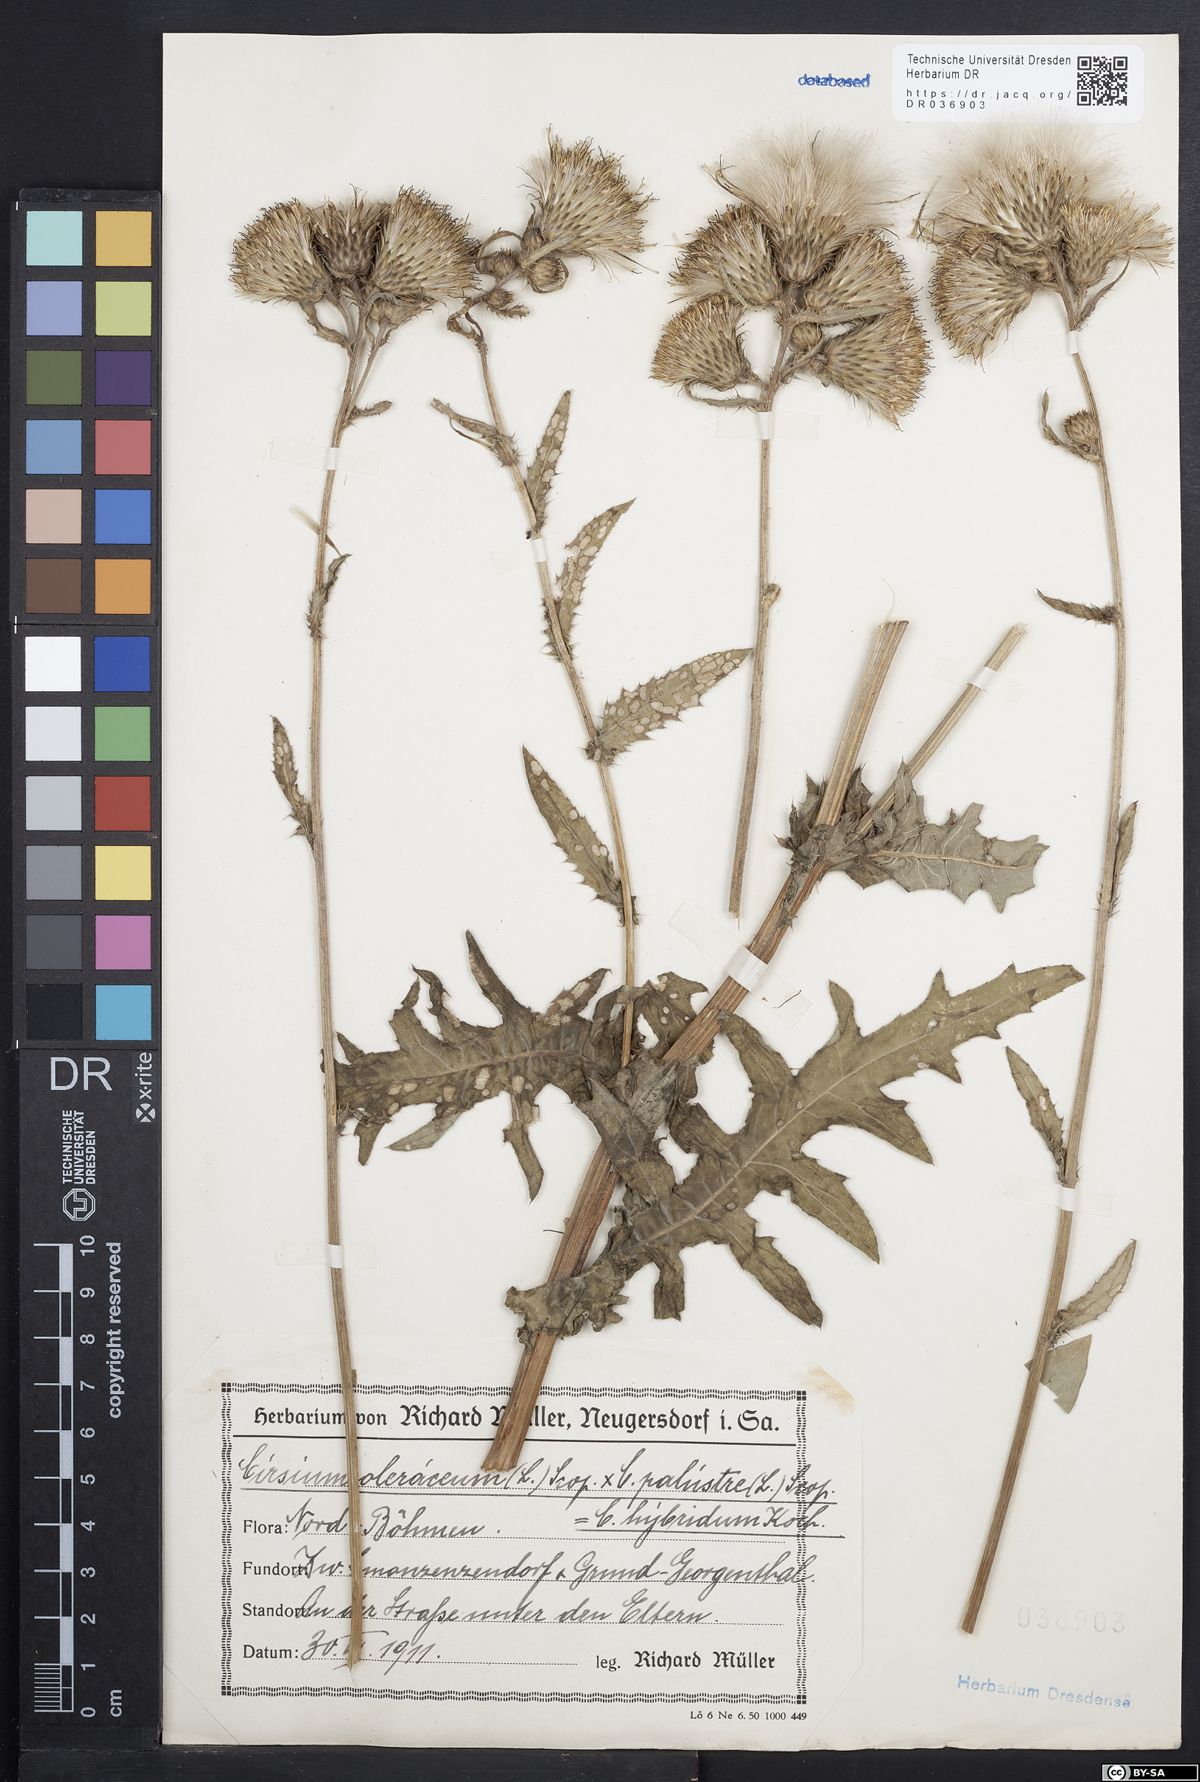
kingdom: Plantae
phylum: Tracheophyta
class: Magnoliopsida
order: Asterales
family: Asteraceae
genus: Cirsium
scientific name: Cirsium oleraceum
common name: Cabbage thistle
